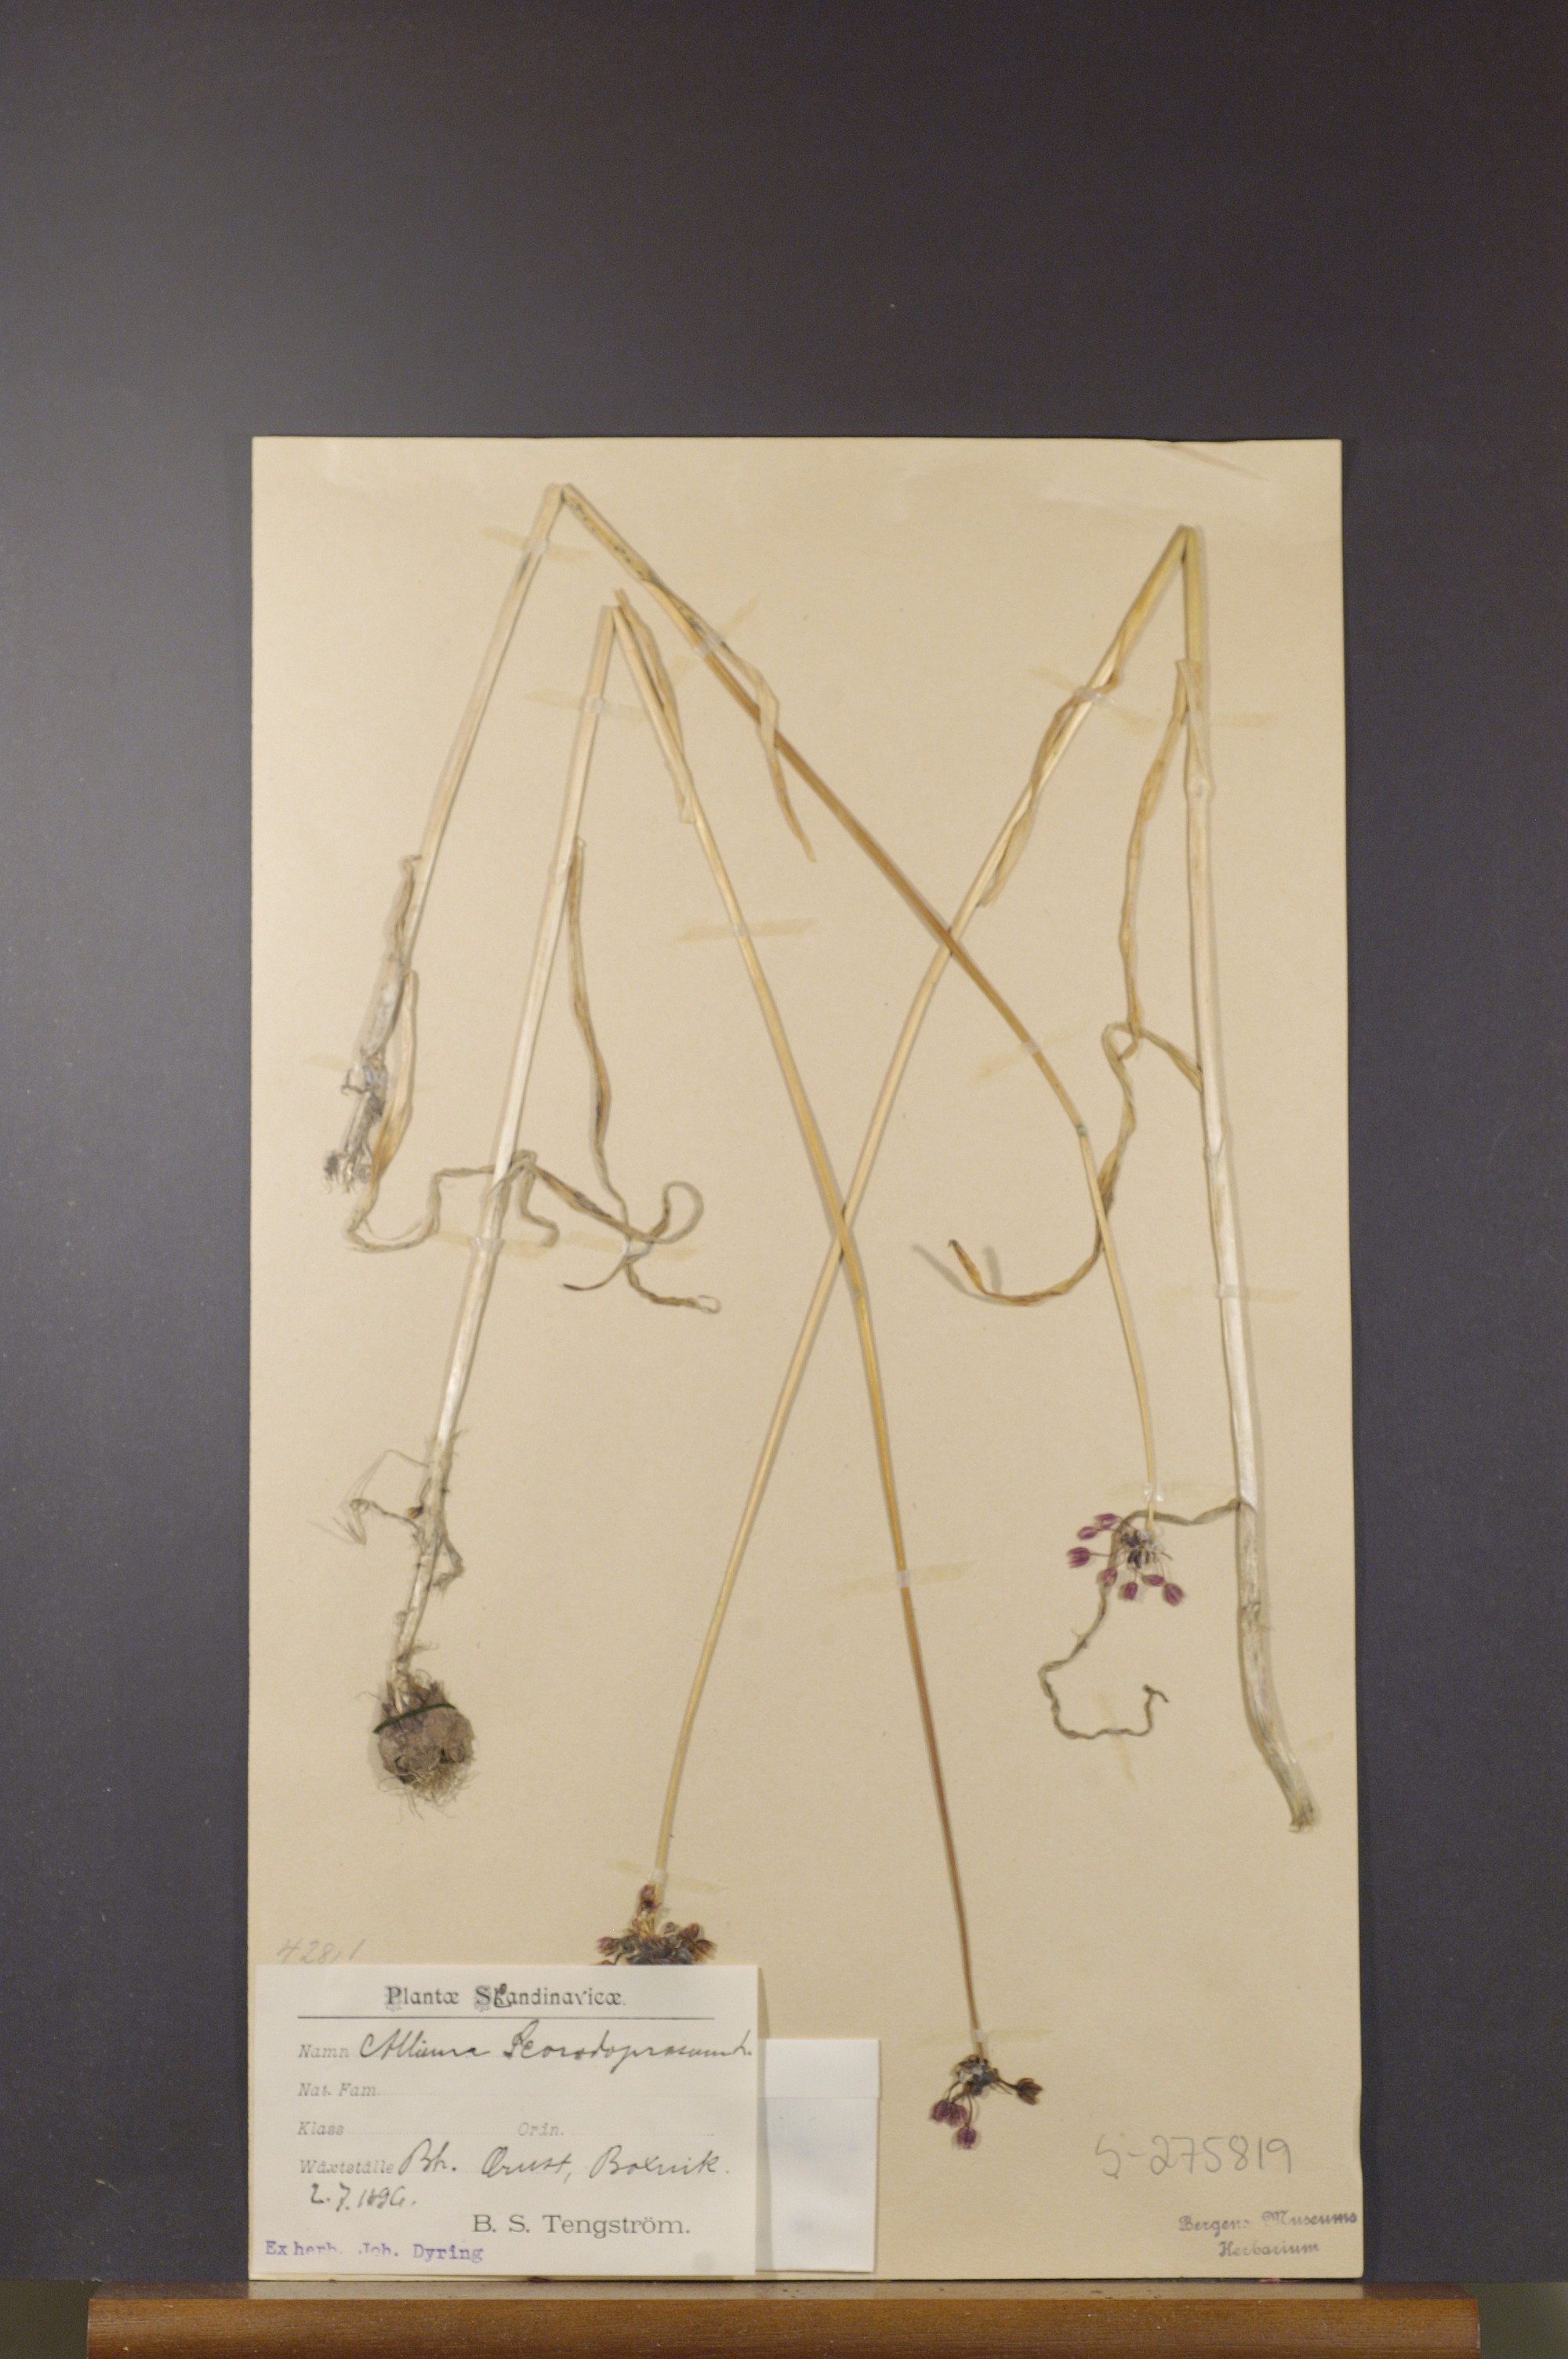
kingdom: Plantae
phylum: Tracheophyta
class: Liliopsida
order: Asparagales
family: Amaryllidaceae
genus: Allium
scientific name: Allium scorodoprasum
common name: Sand leek
